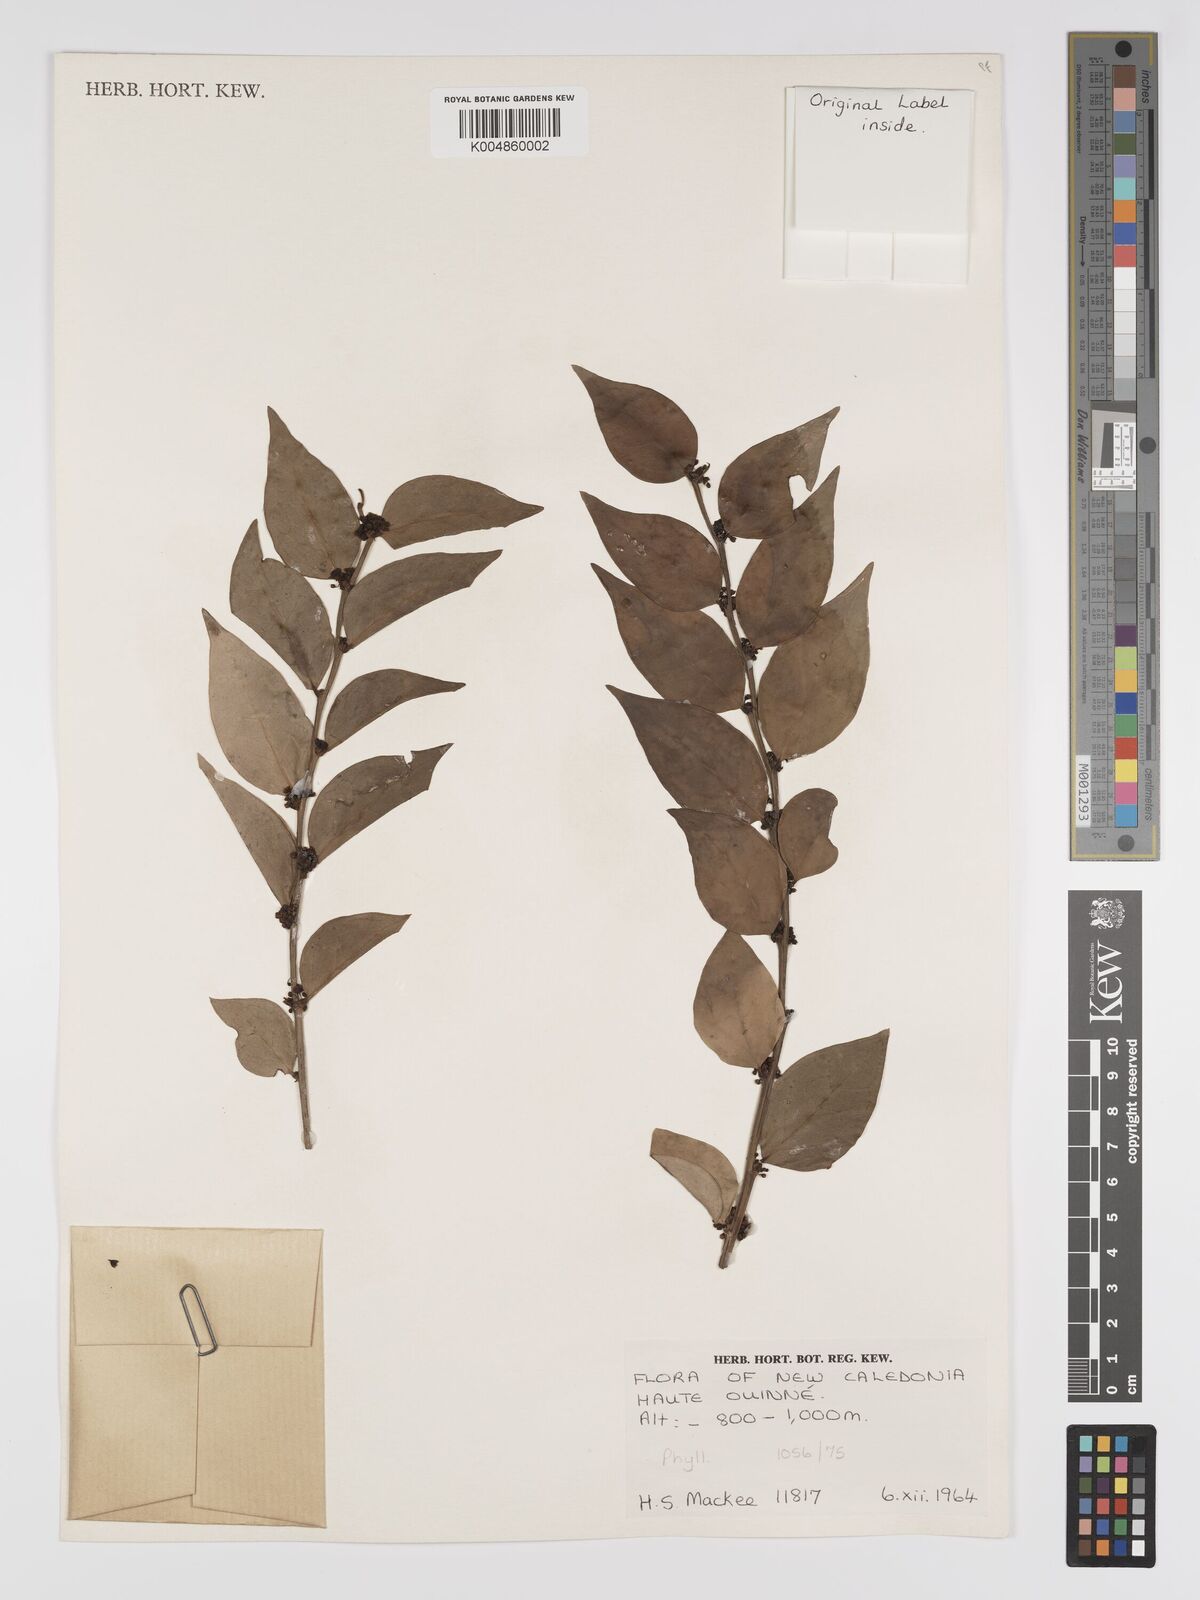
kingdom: Plantae
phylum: Tracheophyta
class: Magnoliopsida
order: Malpighiales
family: Phyllanthaceae
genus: Phyllanthus
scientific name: Phyllanthus
